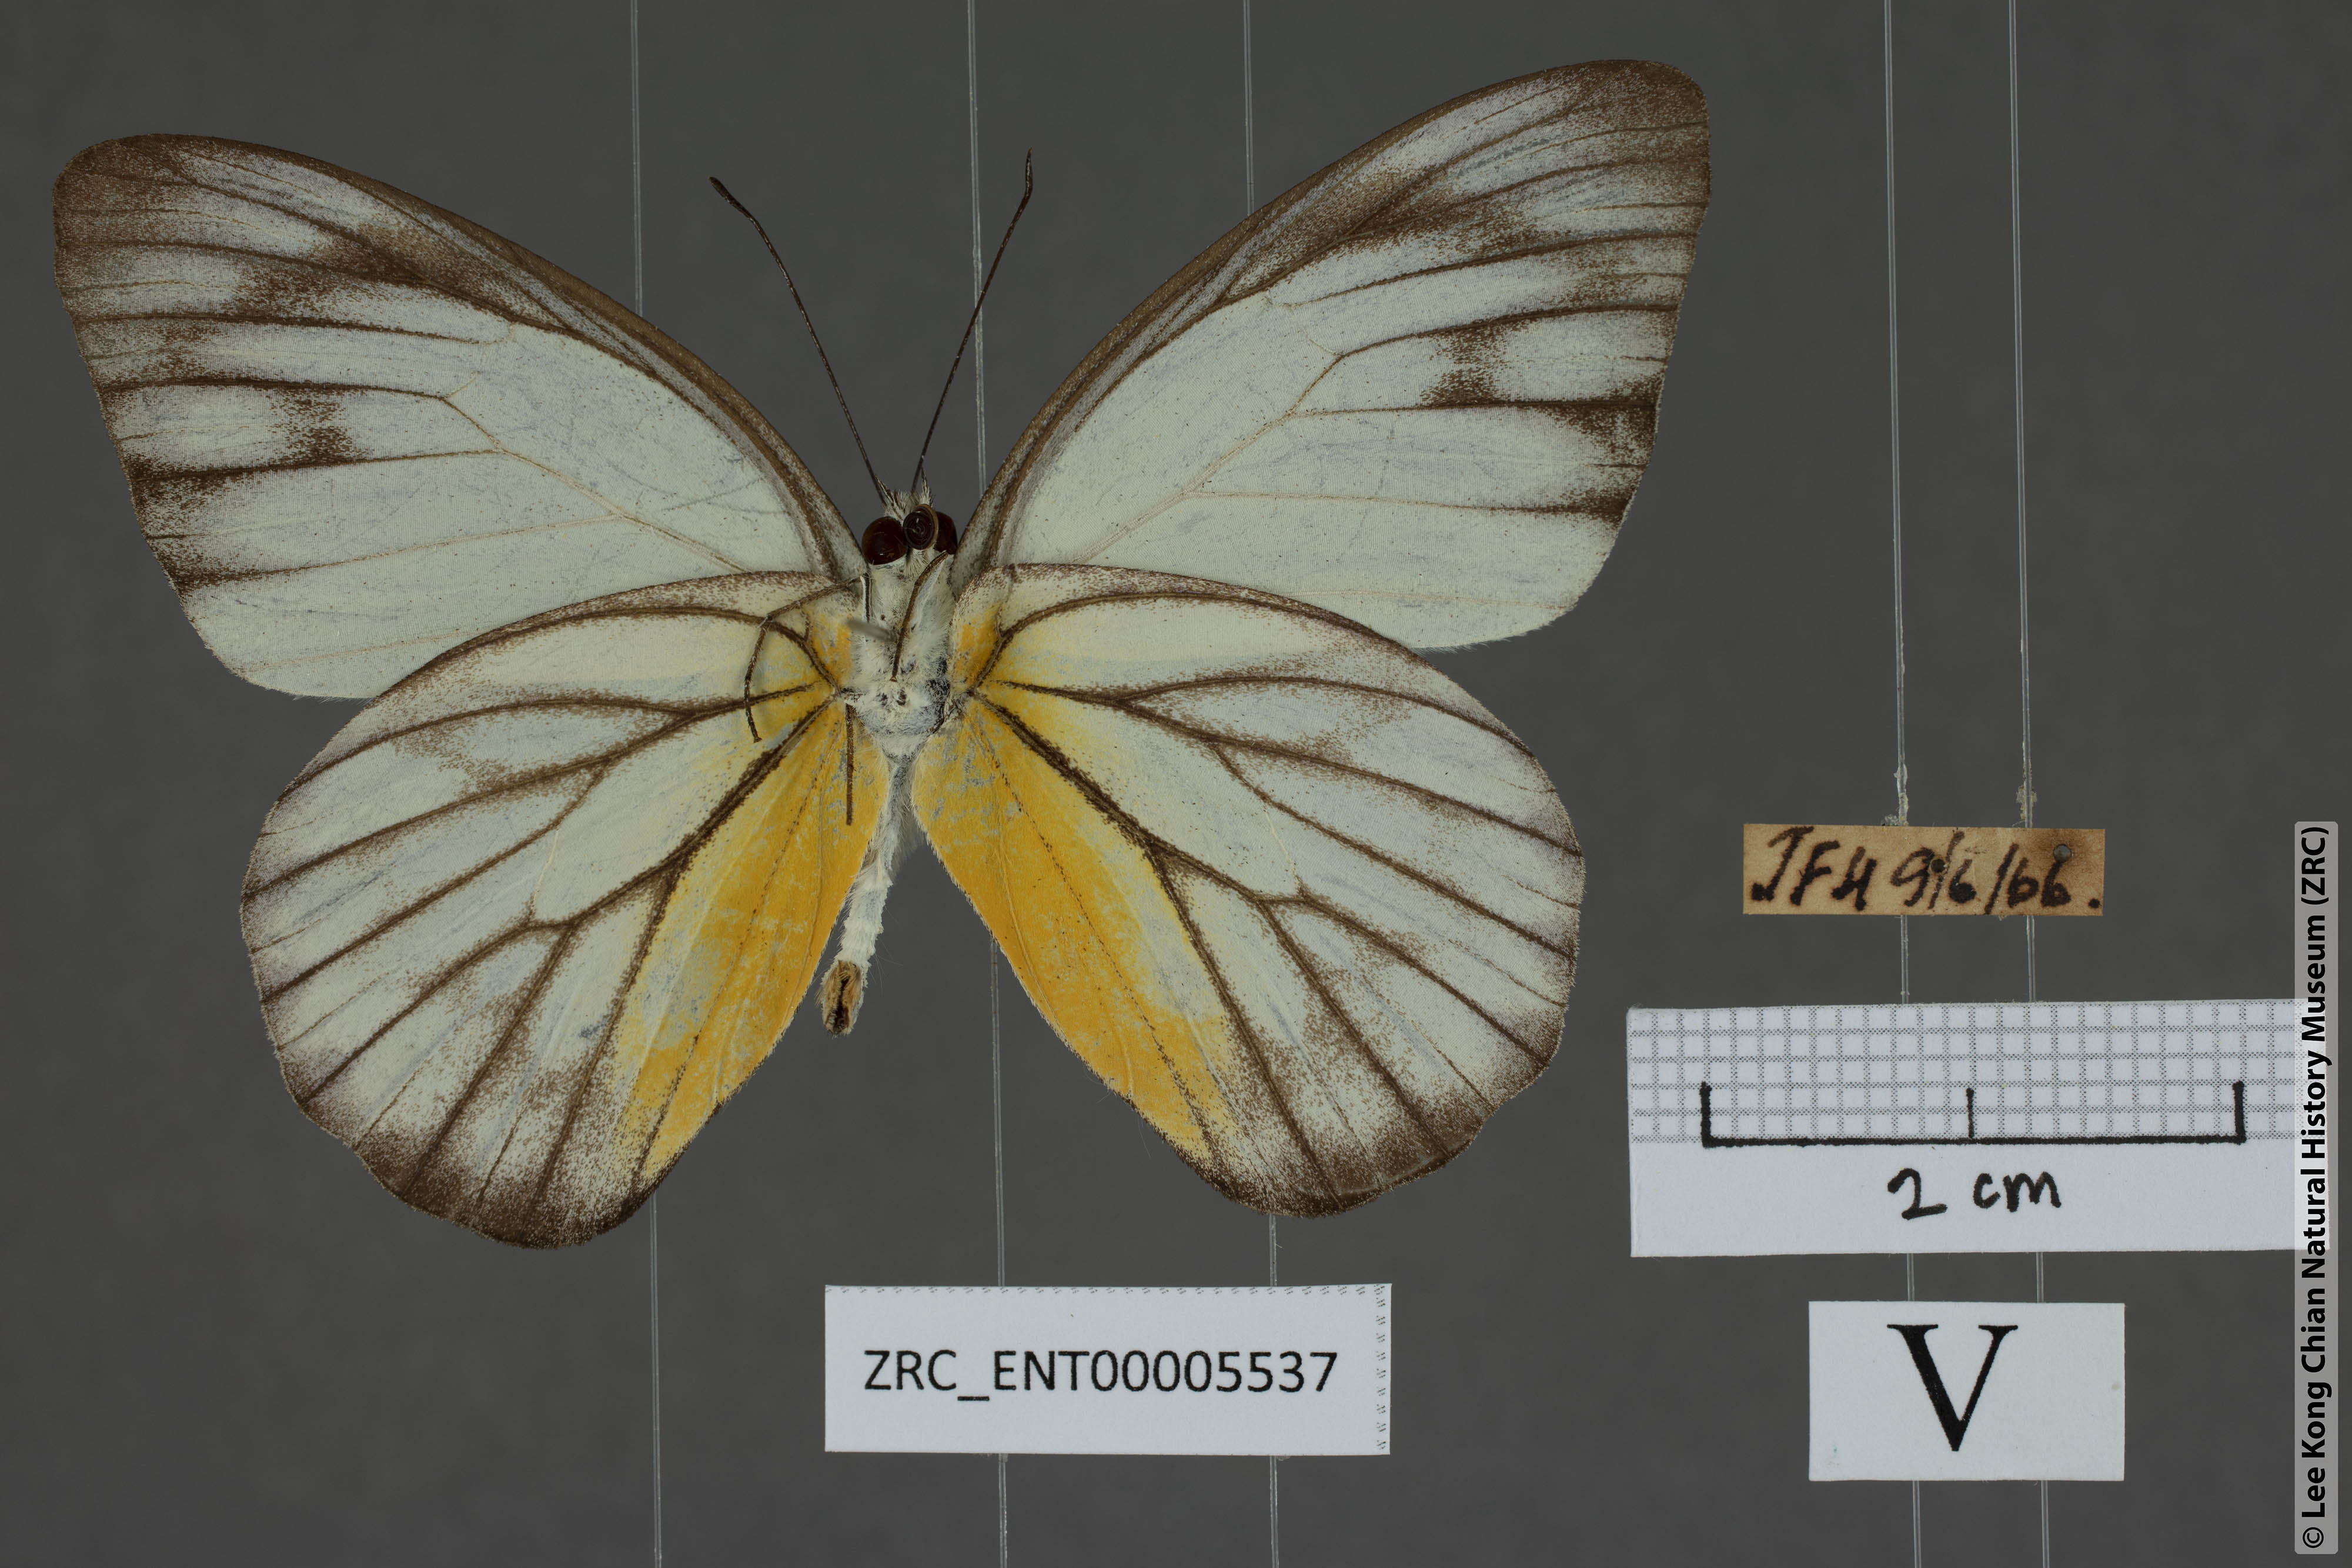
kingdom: Animalia
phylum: Arthropoda
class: Insecta
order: Lepidoptera
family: Pieridae
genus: Appias
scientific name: Appias cardena
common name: Yellow puffin
